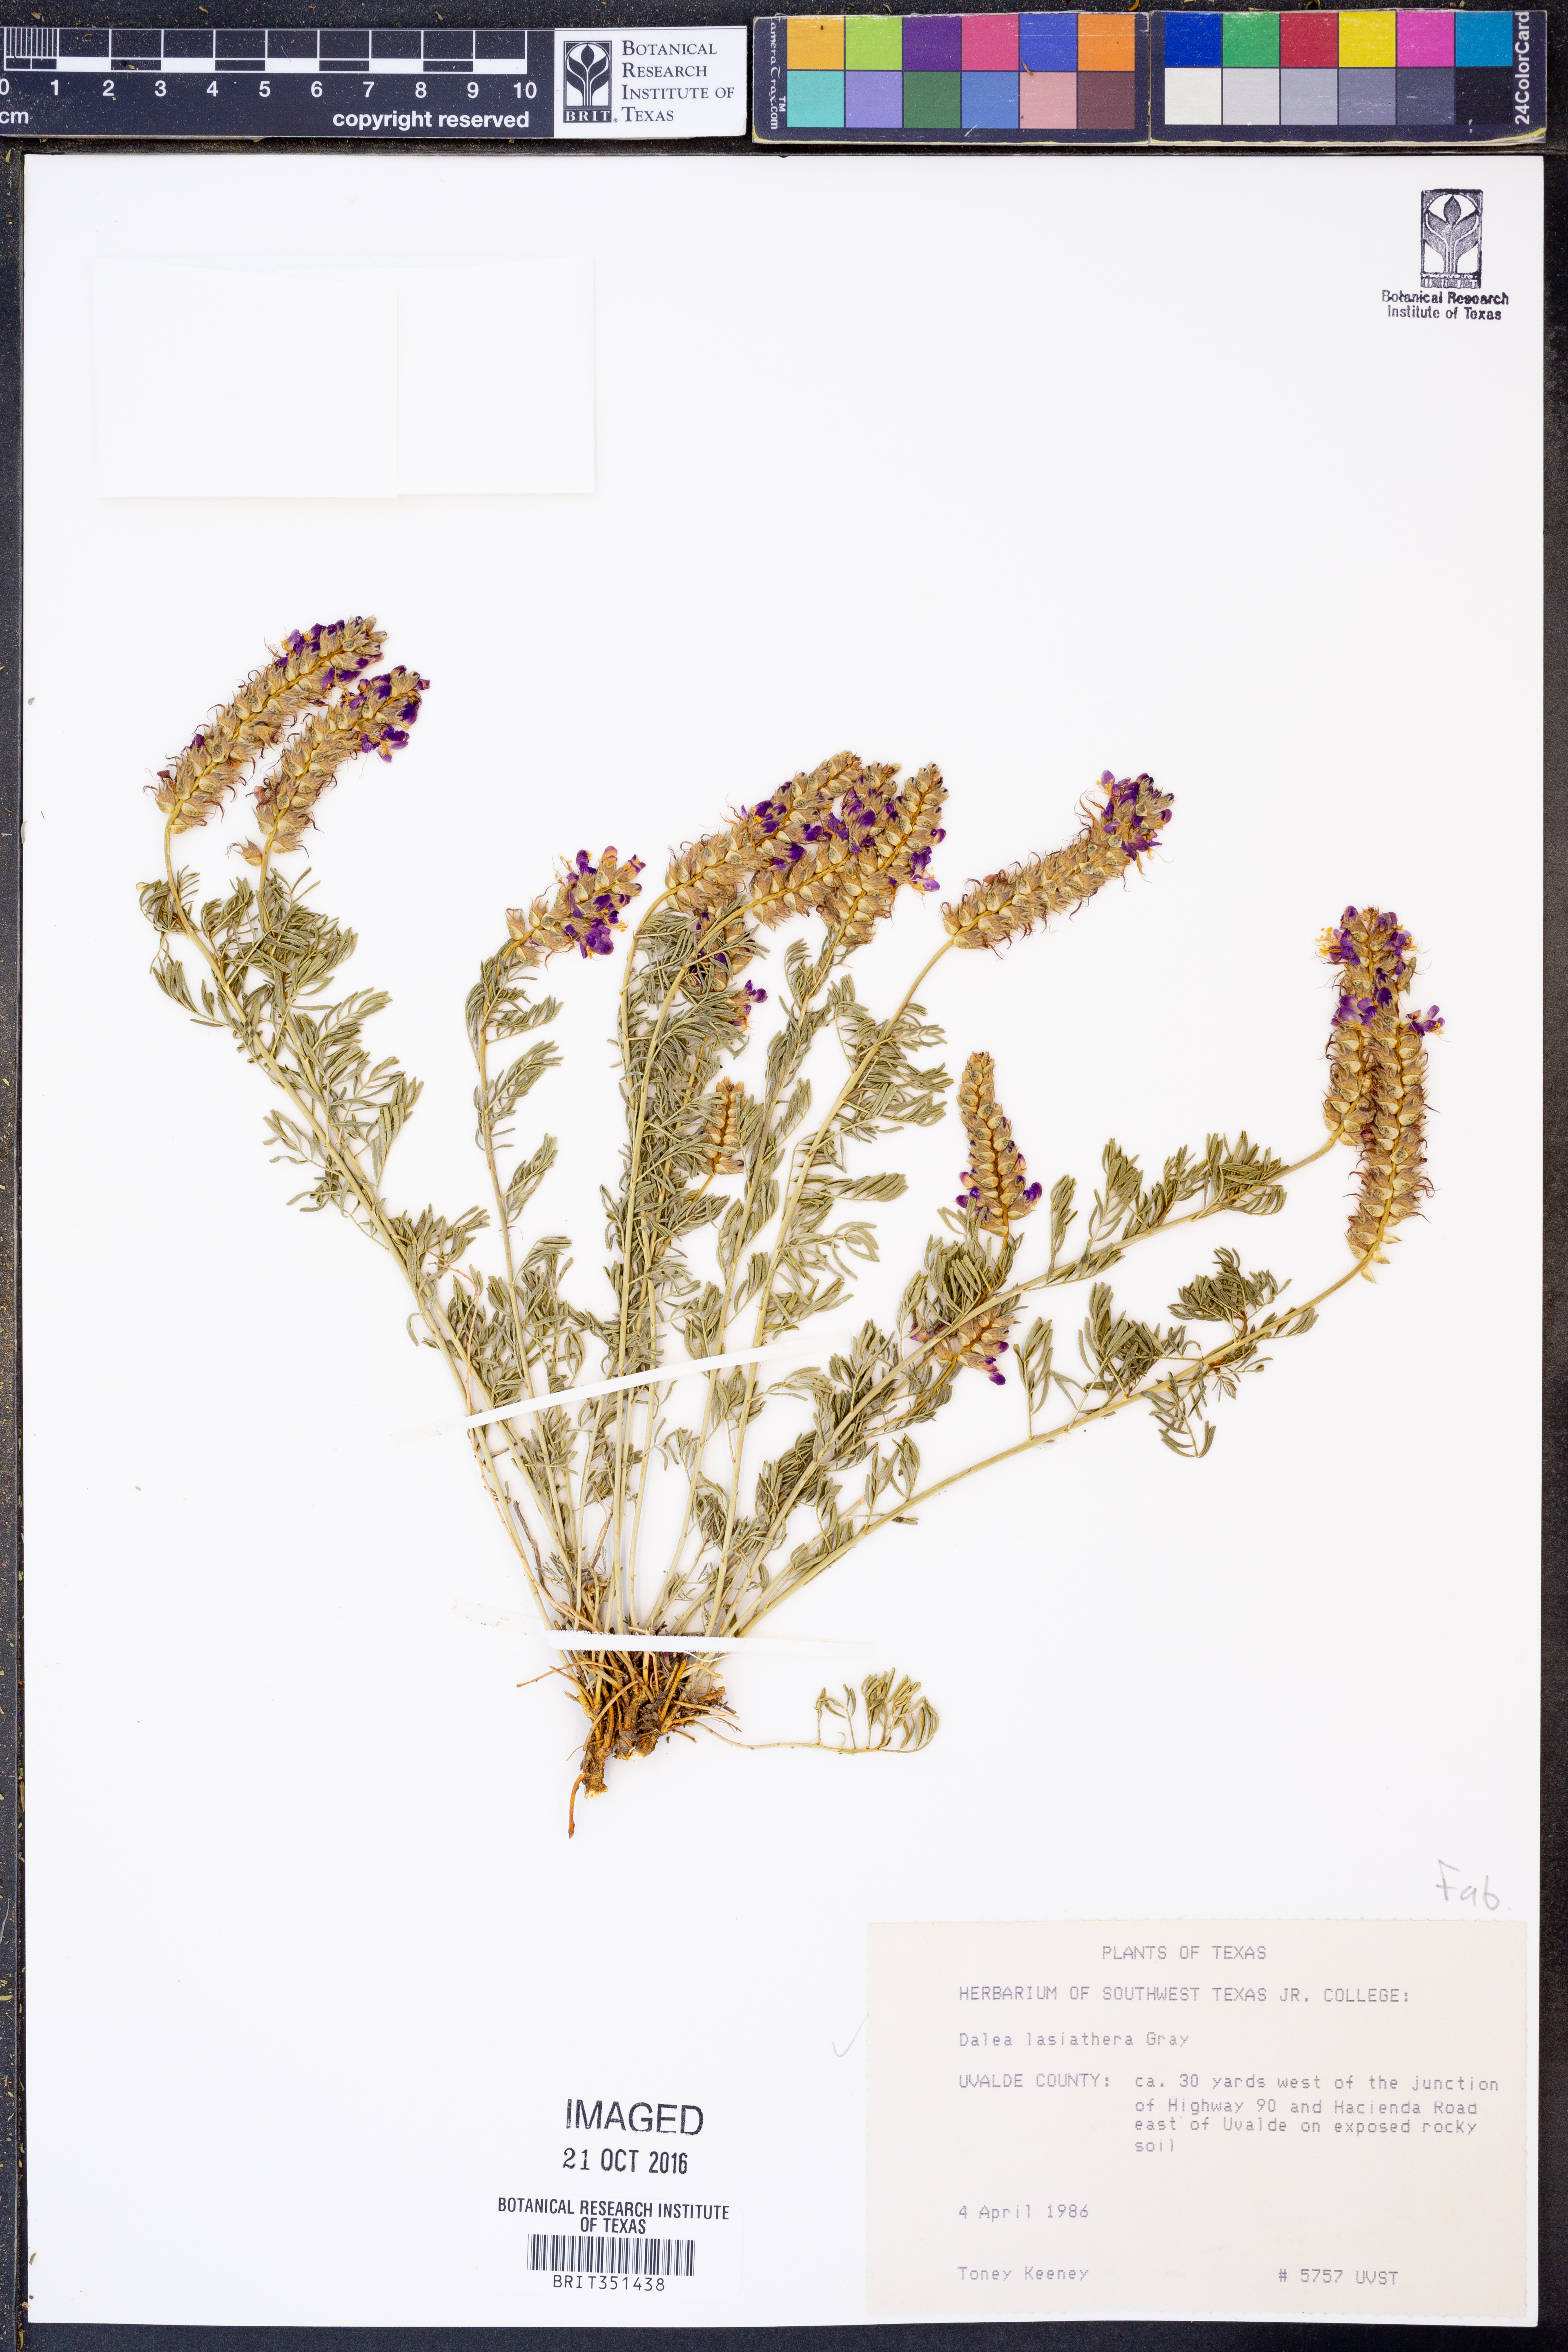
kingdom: Plantae
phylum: Tracheophyta
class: Magnoliopsida
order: Fabales
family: Fabaceae
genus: Dalea
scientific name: Dalea lasiathera
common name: Purple prairie-clover
